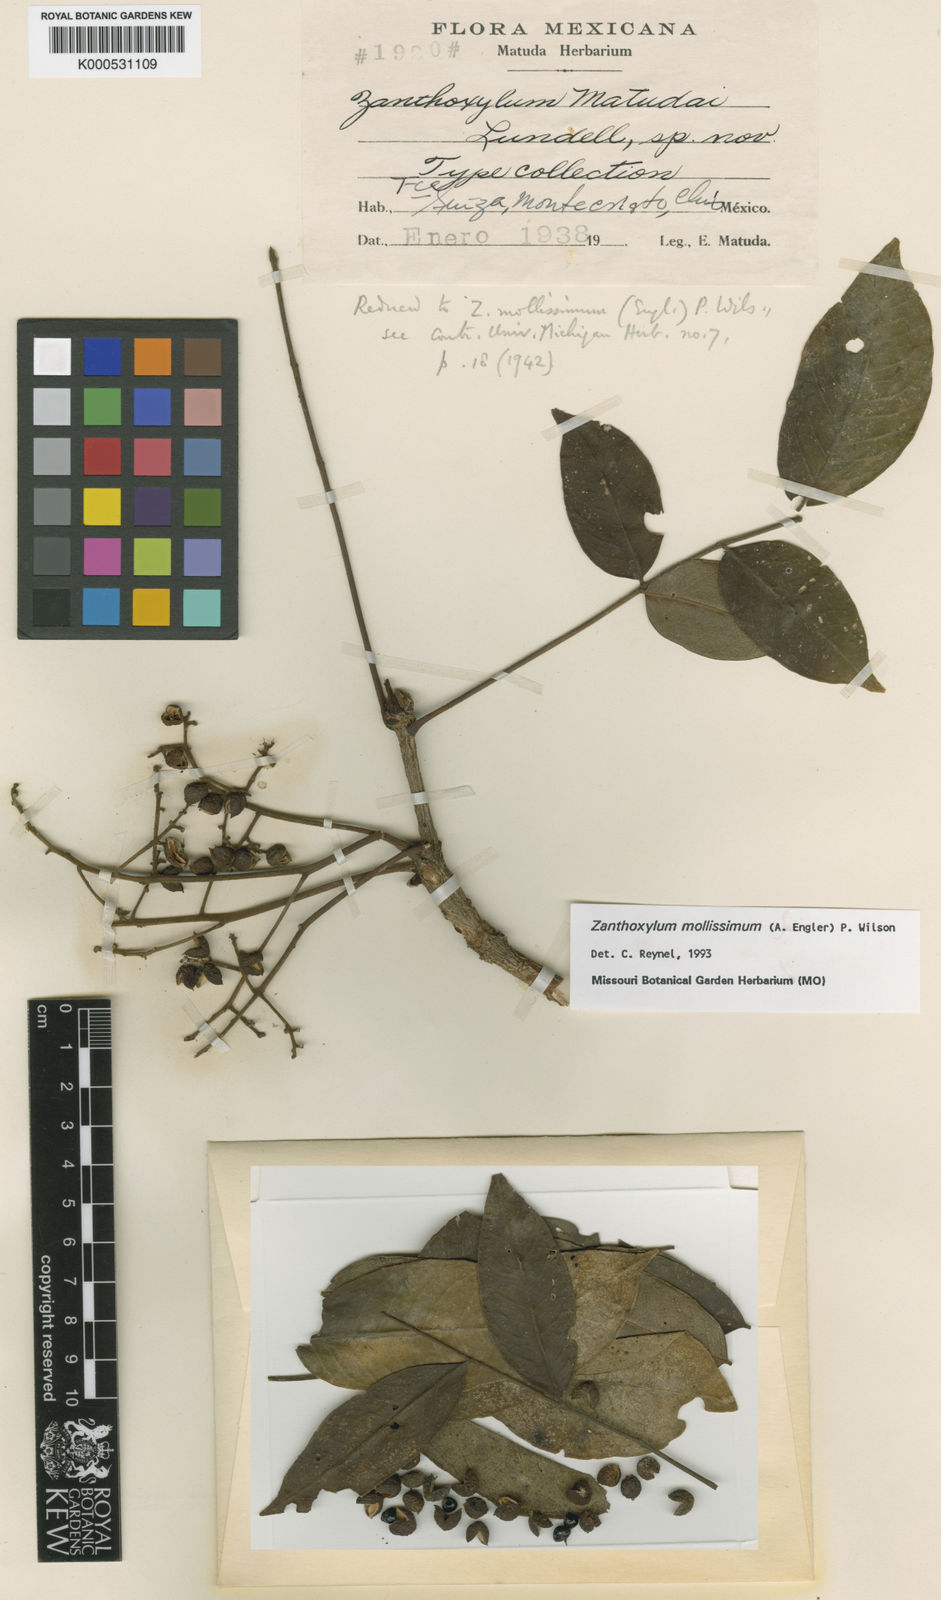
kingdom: Plantae
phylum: Tracheophyta
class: Magnoliopsida
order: Sapindales
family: Rutaceae
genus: Zanthoxylum
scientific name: Zanthoxylum mollissimum
